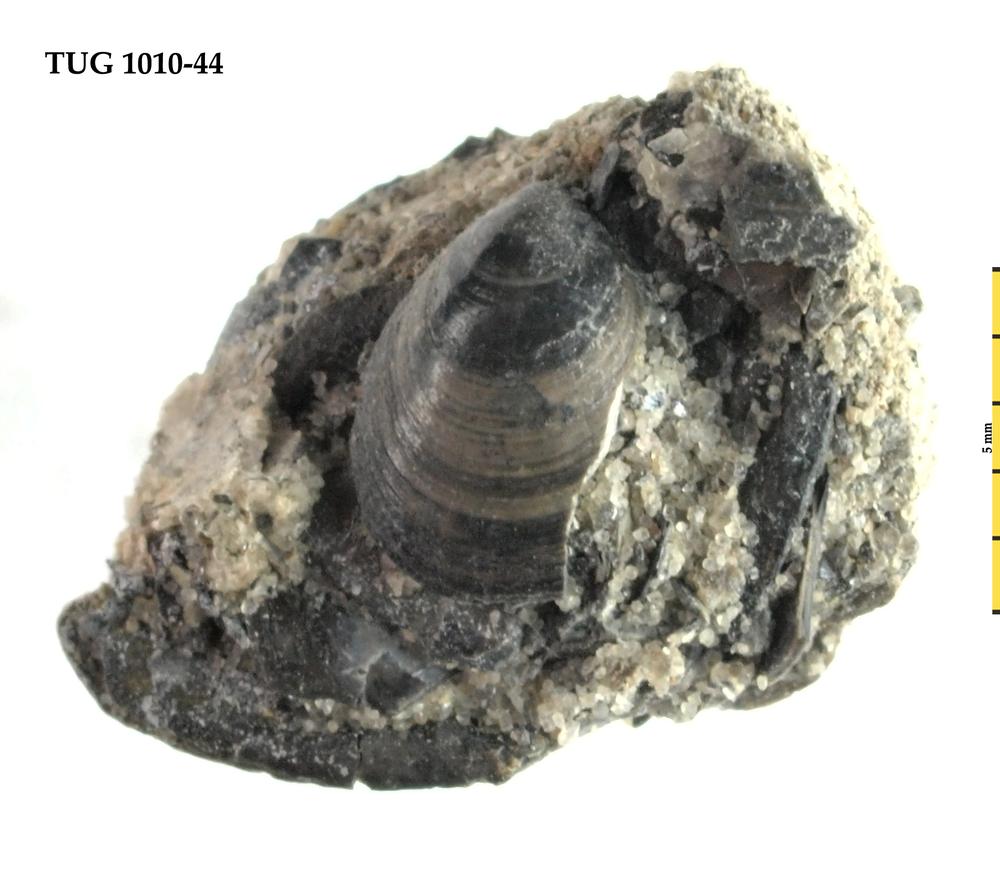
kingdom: Animalia
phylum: Brachiopoda
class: Lingulata
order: Lingulida
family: Obolidae
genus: Schmidtites
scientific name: Schmidtites Schmidtia celata
